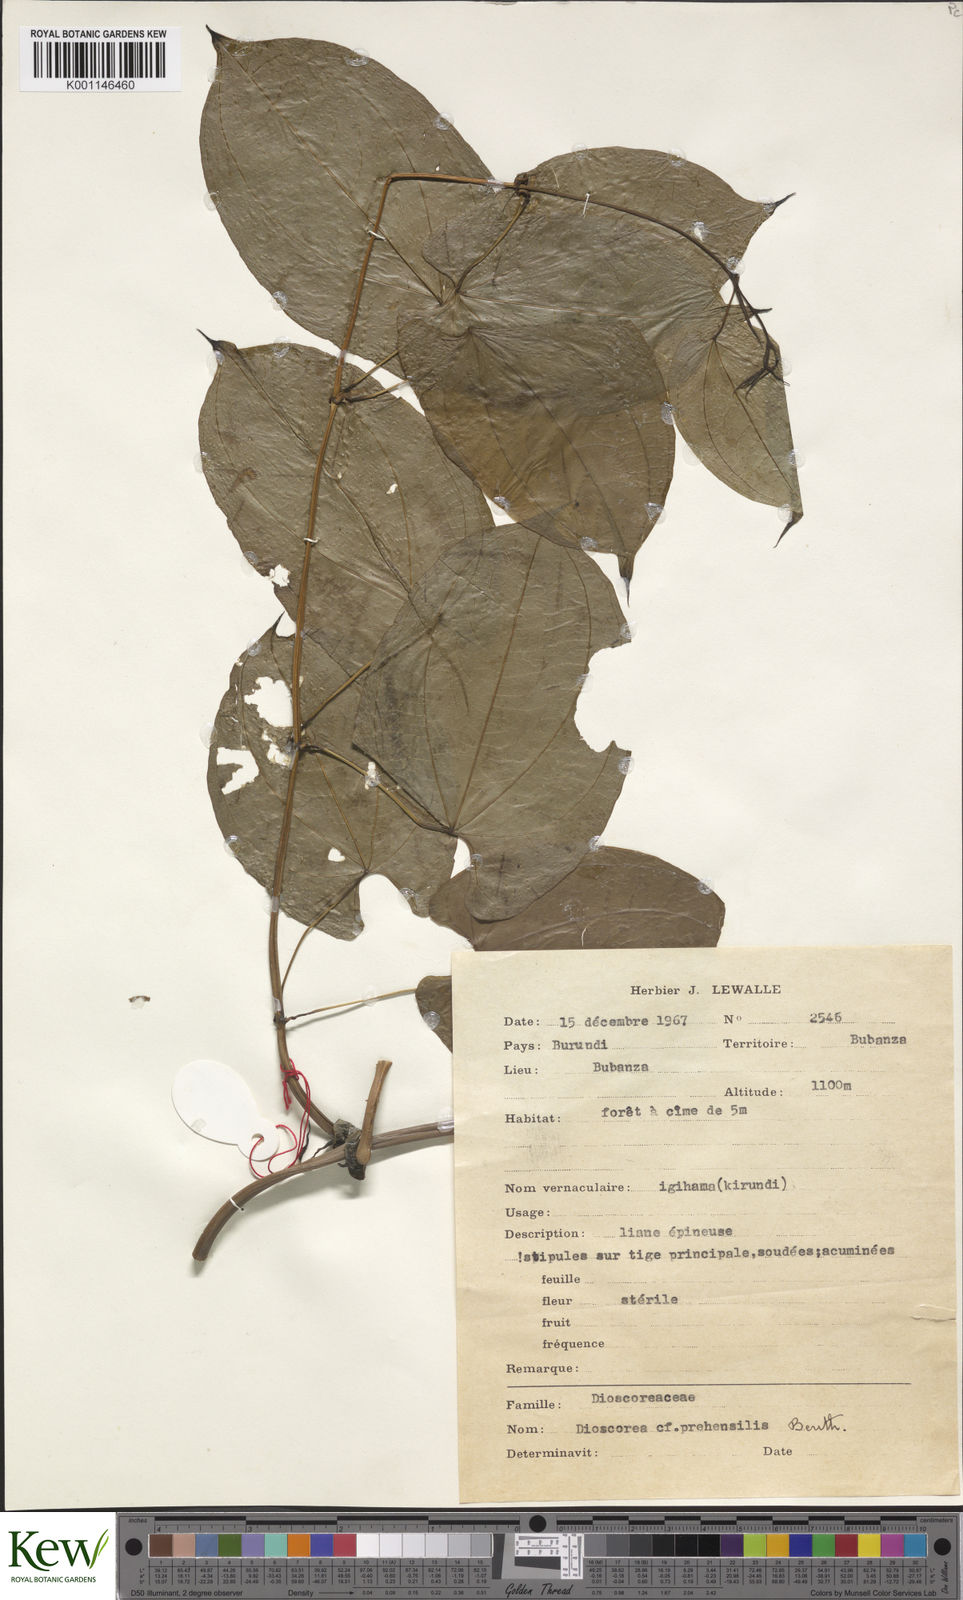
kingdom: Plantae
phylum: Tracheophyta
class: Liliopsida
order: Dioscoreales
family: Dioscoreaceae
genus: Dioscorea
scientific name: Dioscorea praehensilis
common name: Bush yam
